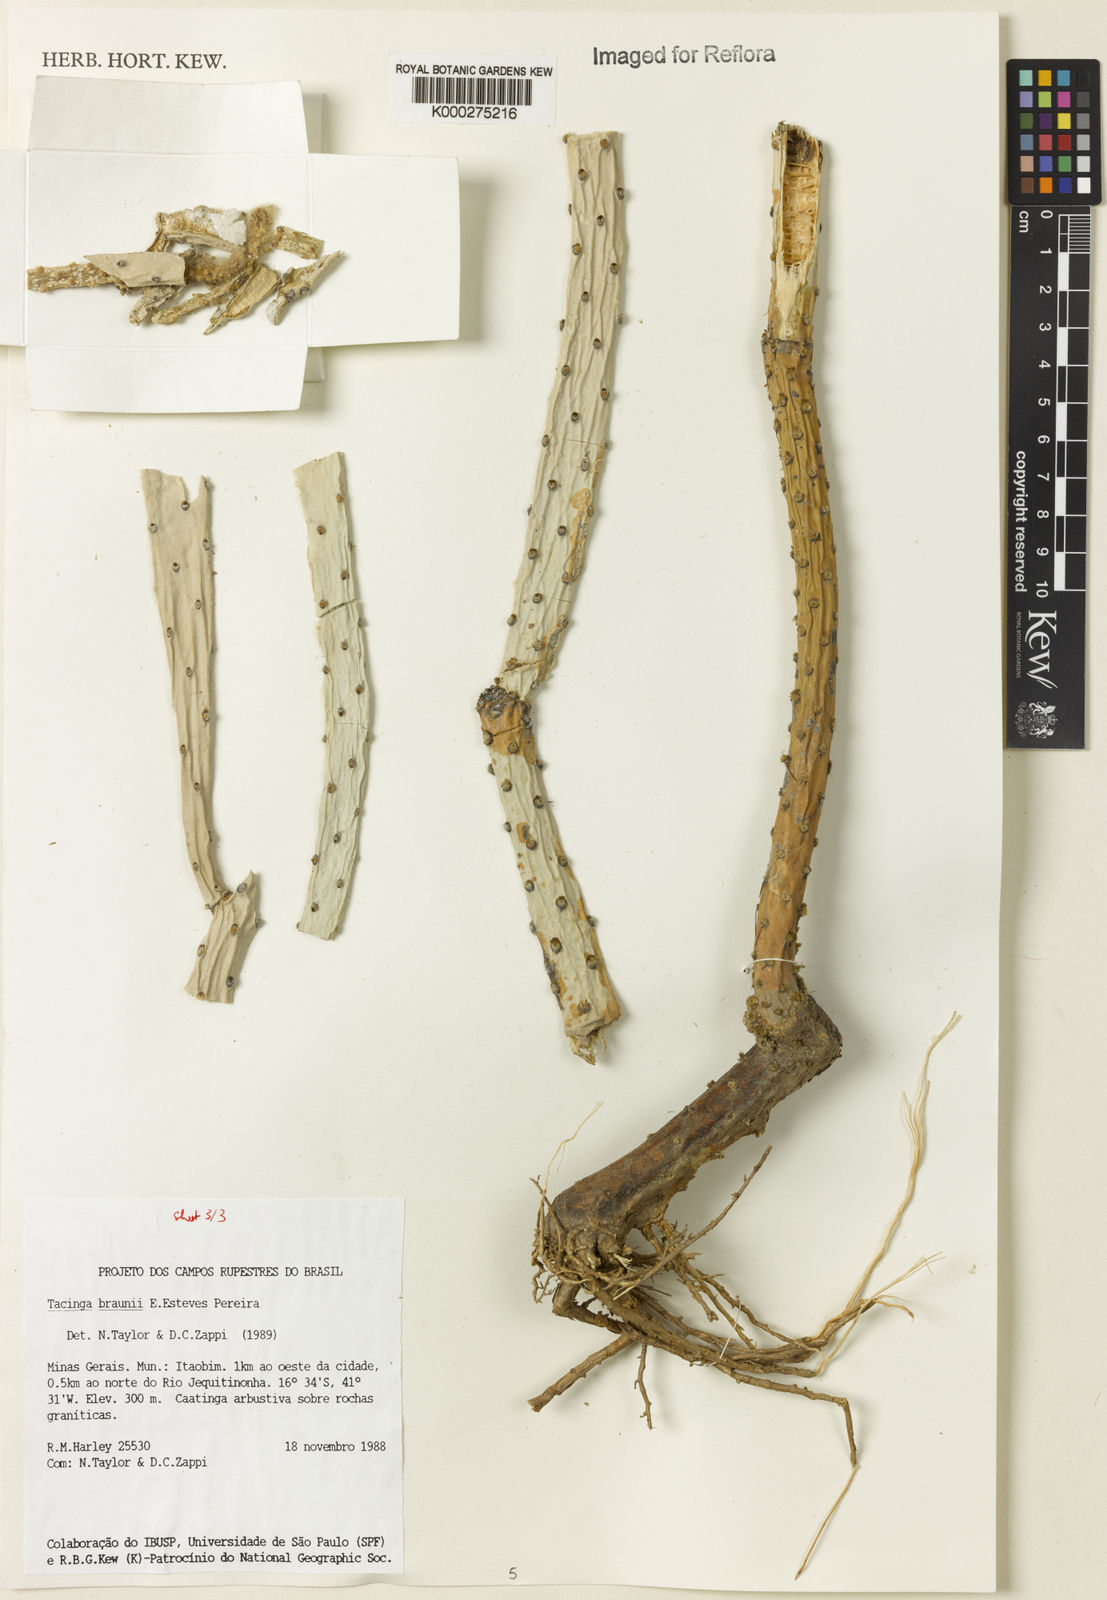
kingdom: Plantae
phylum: Tracheophyta
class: Magnoliopsida
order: Caryophyllales
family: Cactaceae
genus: Tacinga
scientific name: Tacinga braunii
